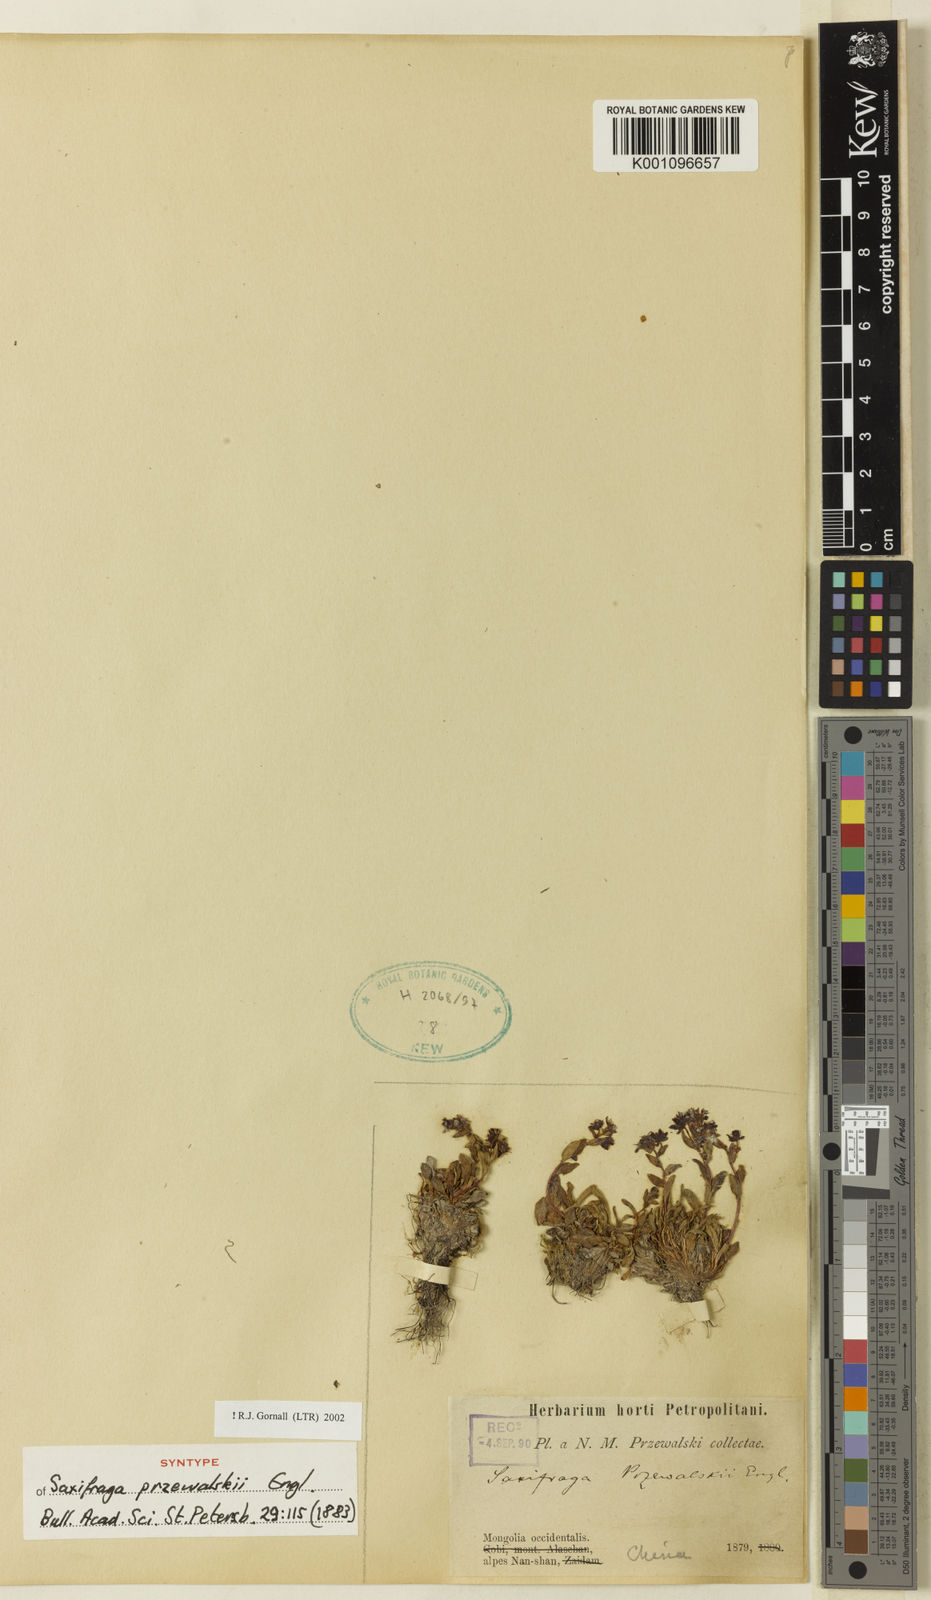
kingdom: Plantae
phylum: Tracheophyta
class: Magnoliopsida
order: Saxifragales
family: Saxifragaceae
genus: Saxifraga
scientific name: Saxifraga przewalskii
